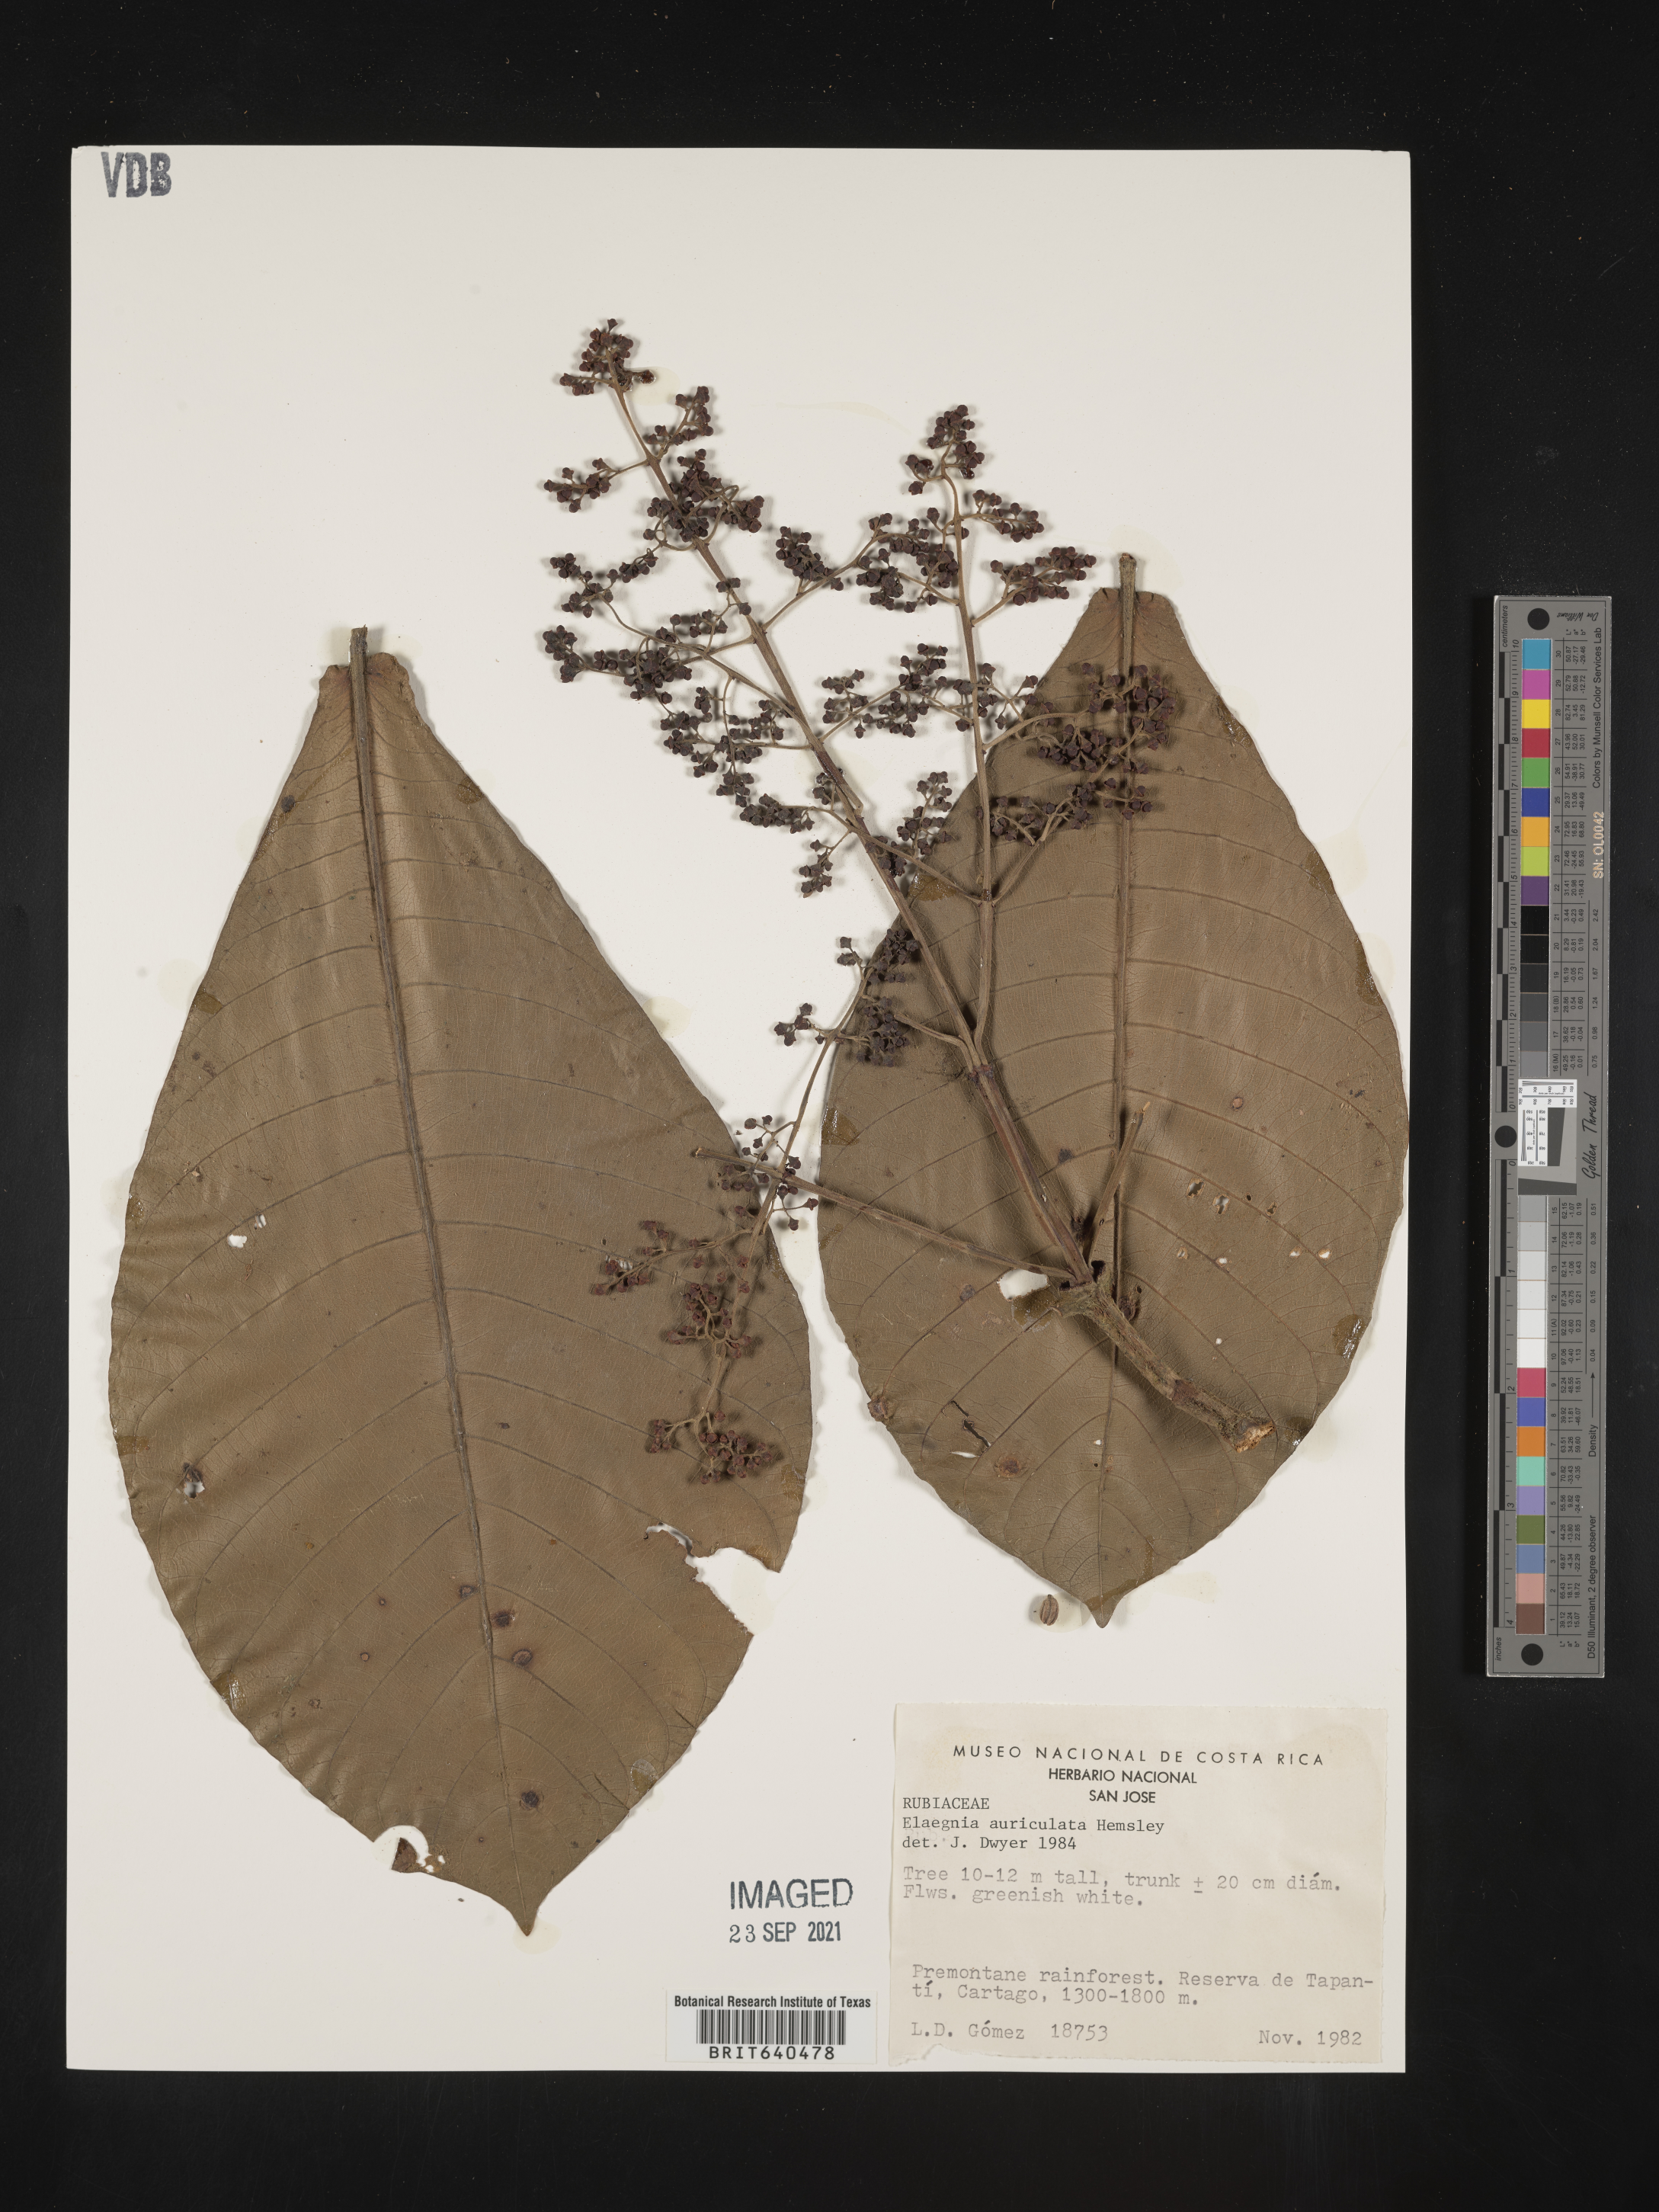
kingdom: Plantae
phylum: Tracheophyta
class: Magnoliopsida
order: Gentianales
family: Rubiaceae
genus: Elaeagia
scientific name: Elaeagia
